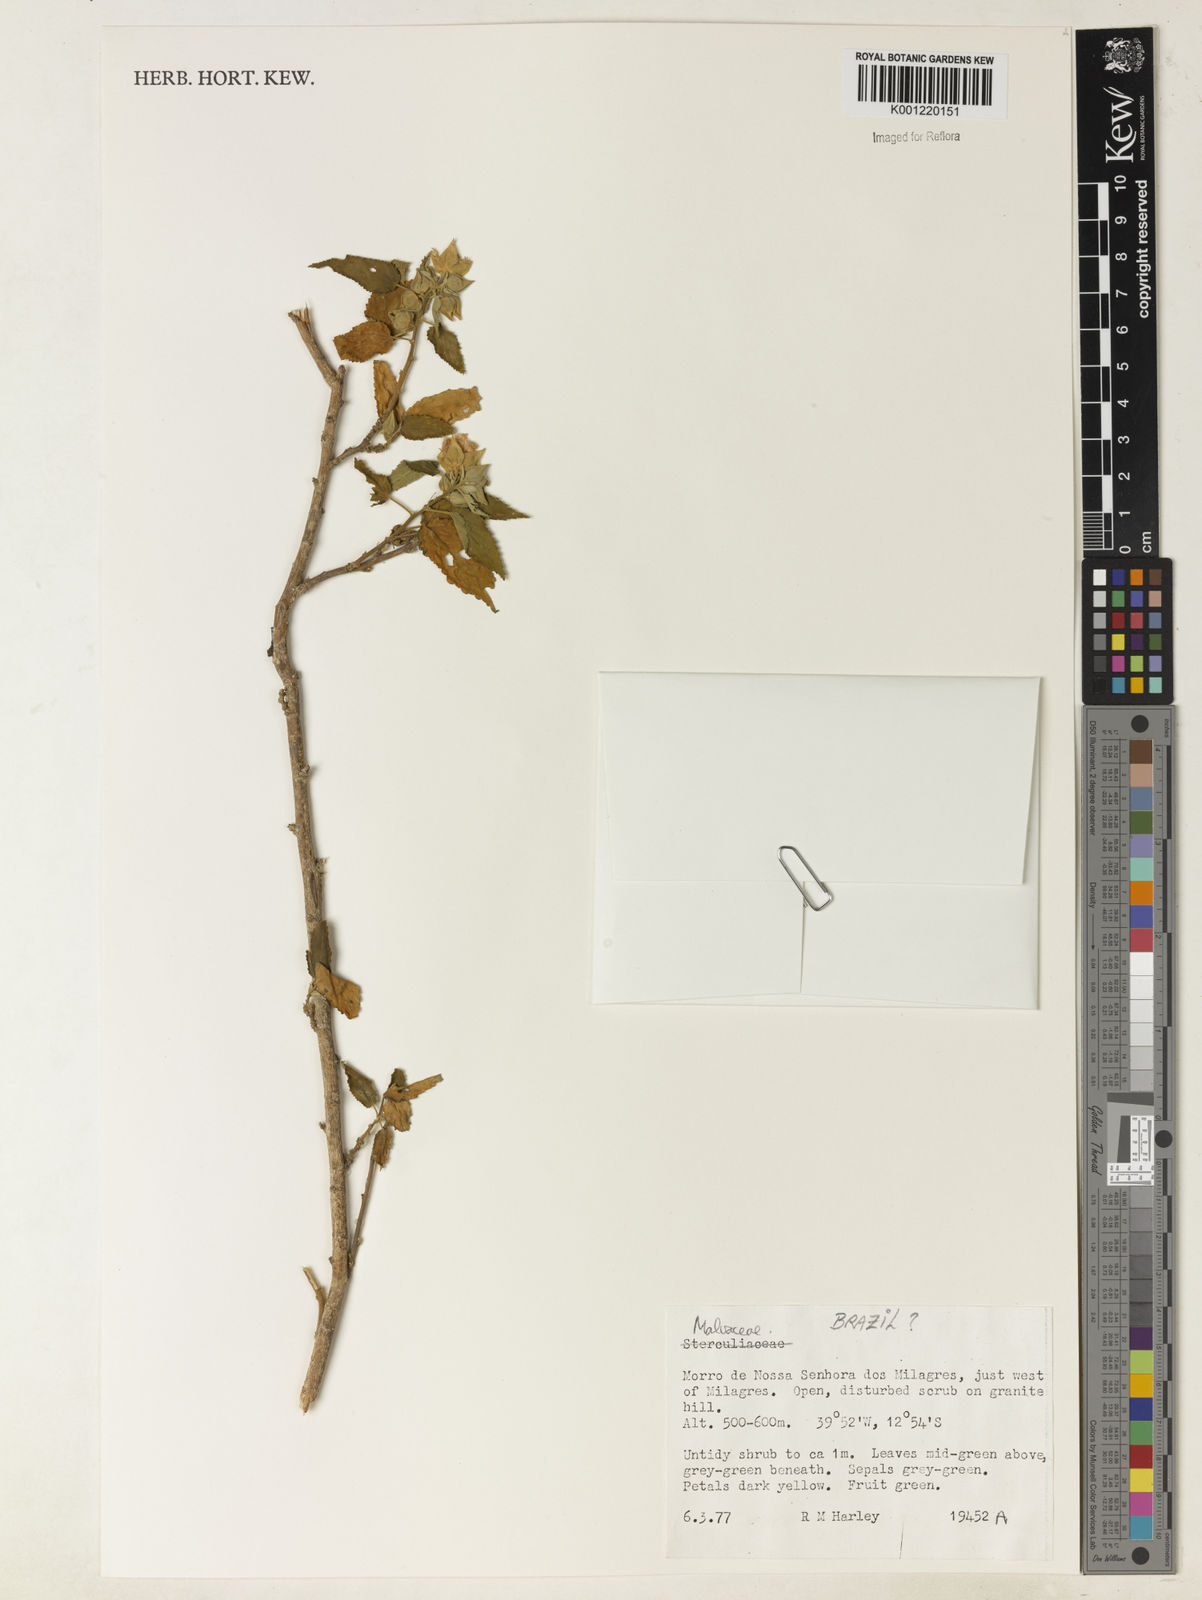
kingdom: Plantae
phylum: Tracheophyta
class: Magnoliopsida
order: Malvales
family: Malvaceae
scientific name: Malvaceae
